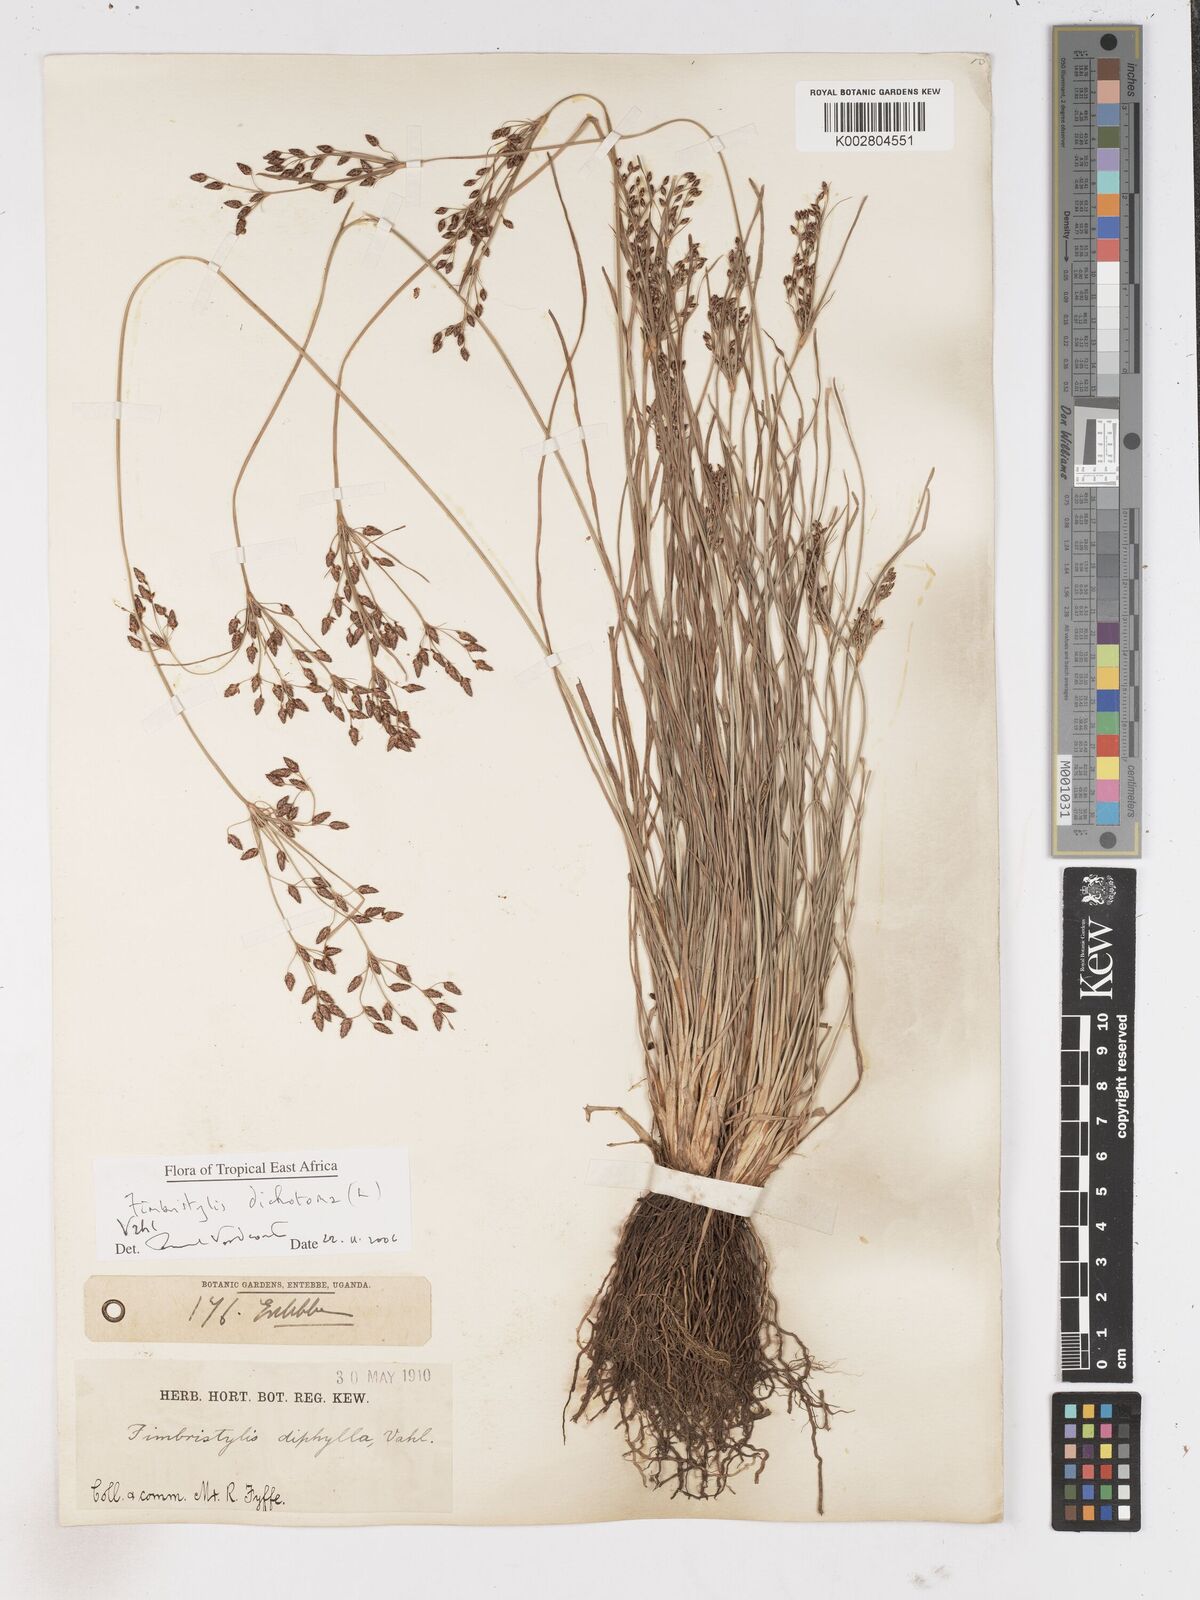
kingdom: Plantae
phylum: Tracheophyta
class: Liliopsida
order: Poales
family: Cyperaceae
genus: Fimbristylis
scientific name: Fimbristylis dichotoma
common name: Forked fimbry
